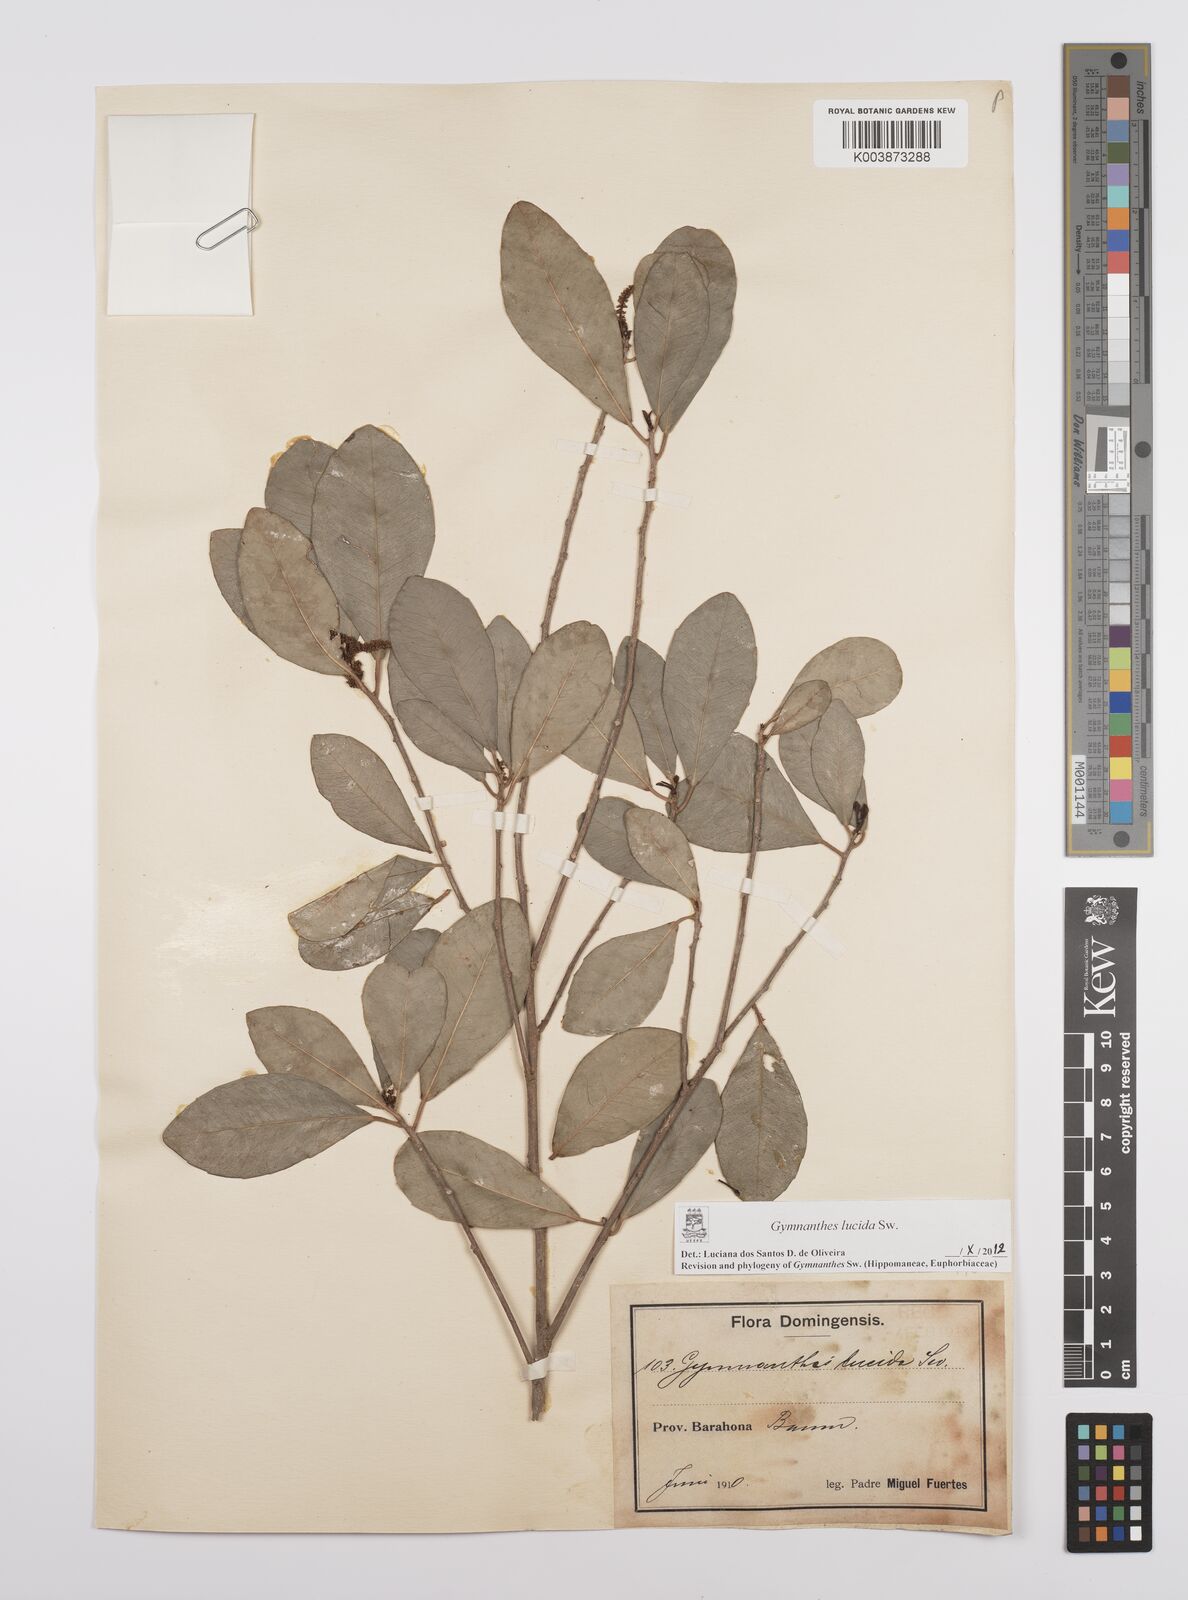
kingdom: Plantae
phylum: Tracheophyta
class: Magnoliopsida
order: Malpighiales
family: Euphorbiaceae
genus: Gymnanthes
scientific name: Gymnanthes lucida
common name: Oysterwood
